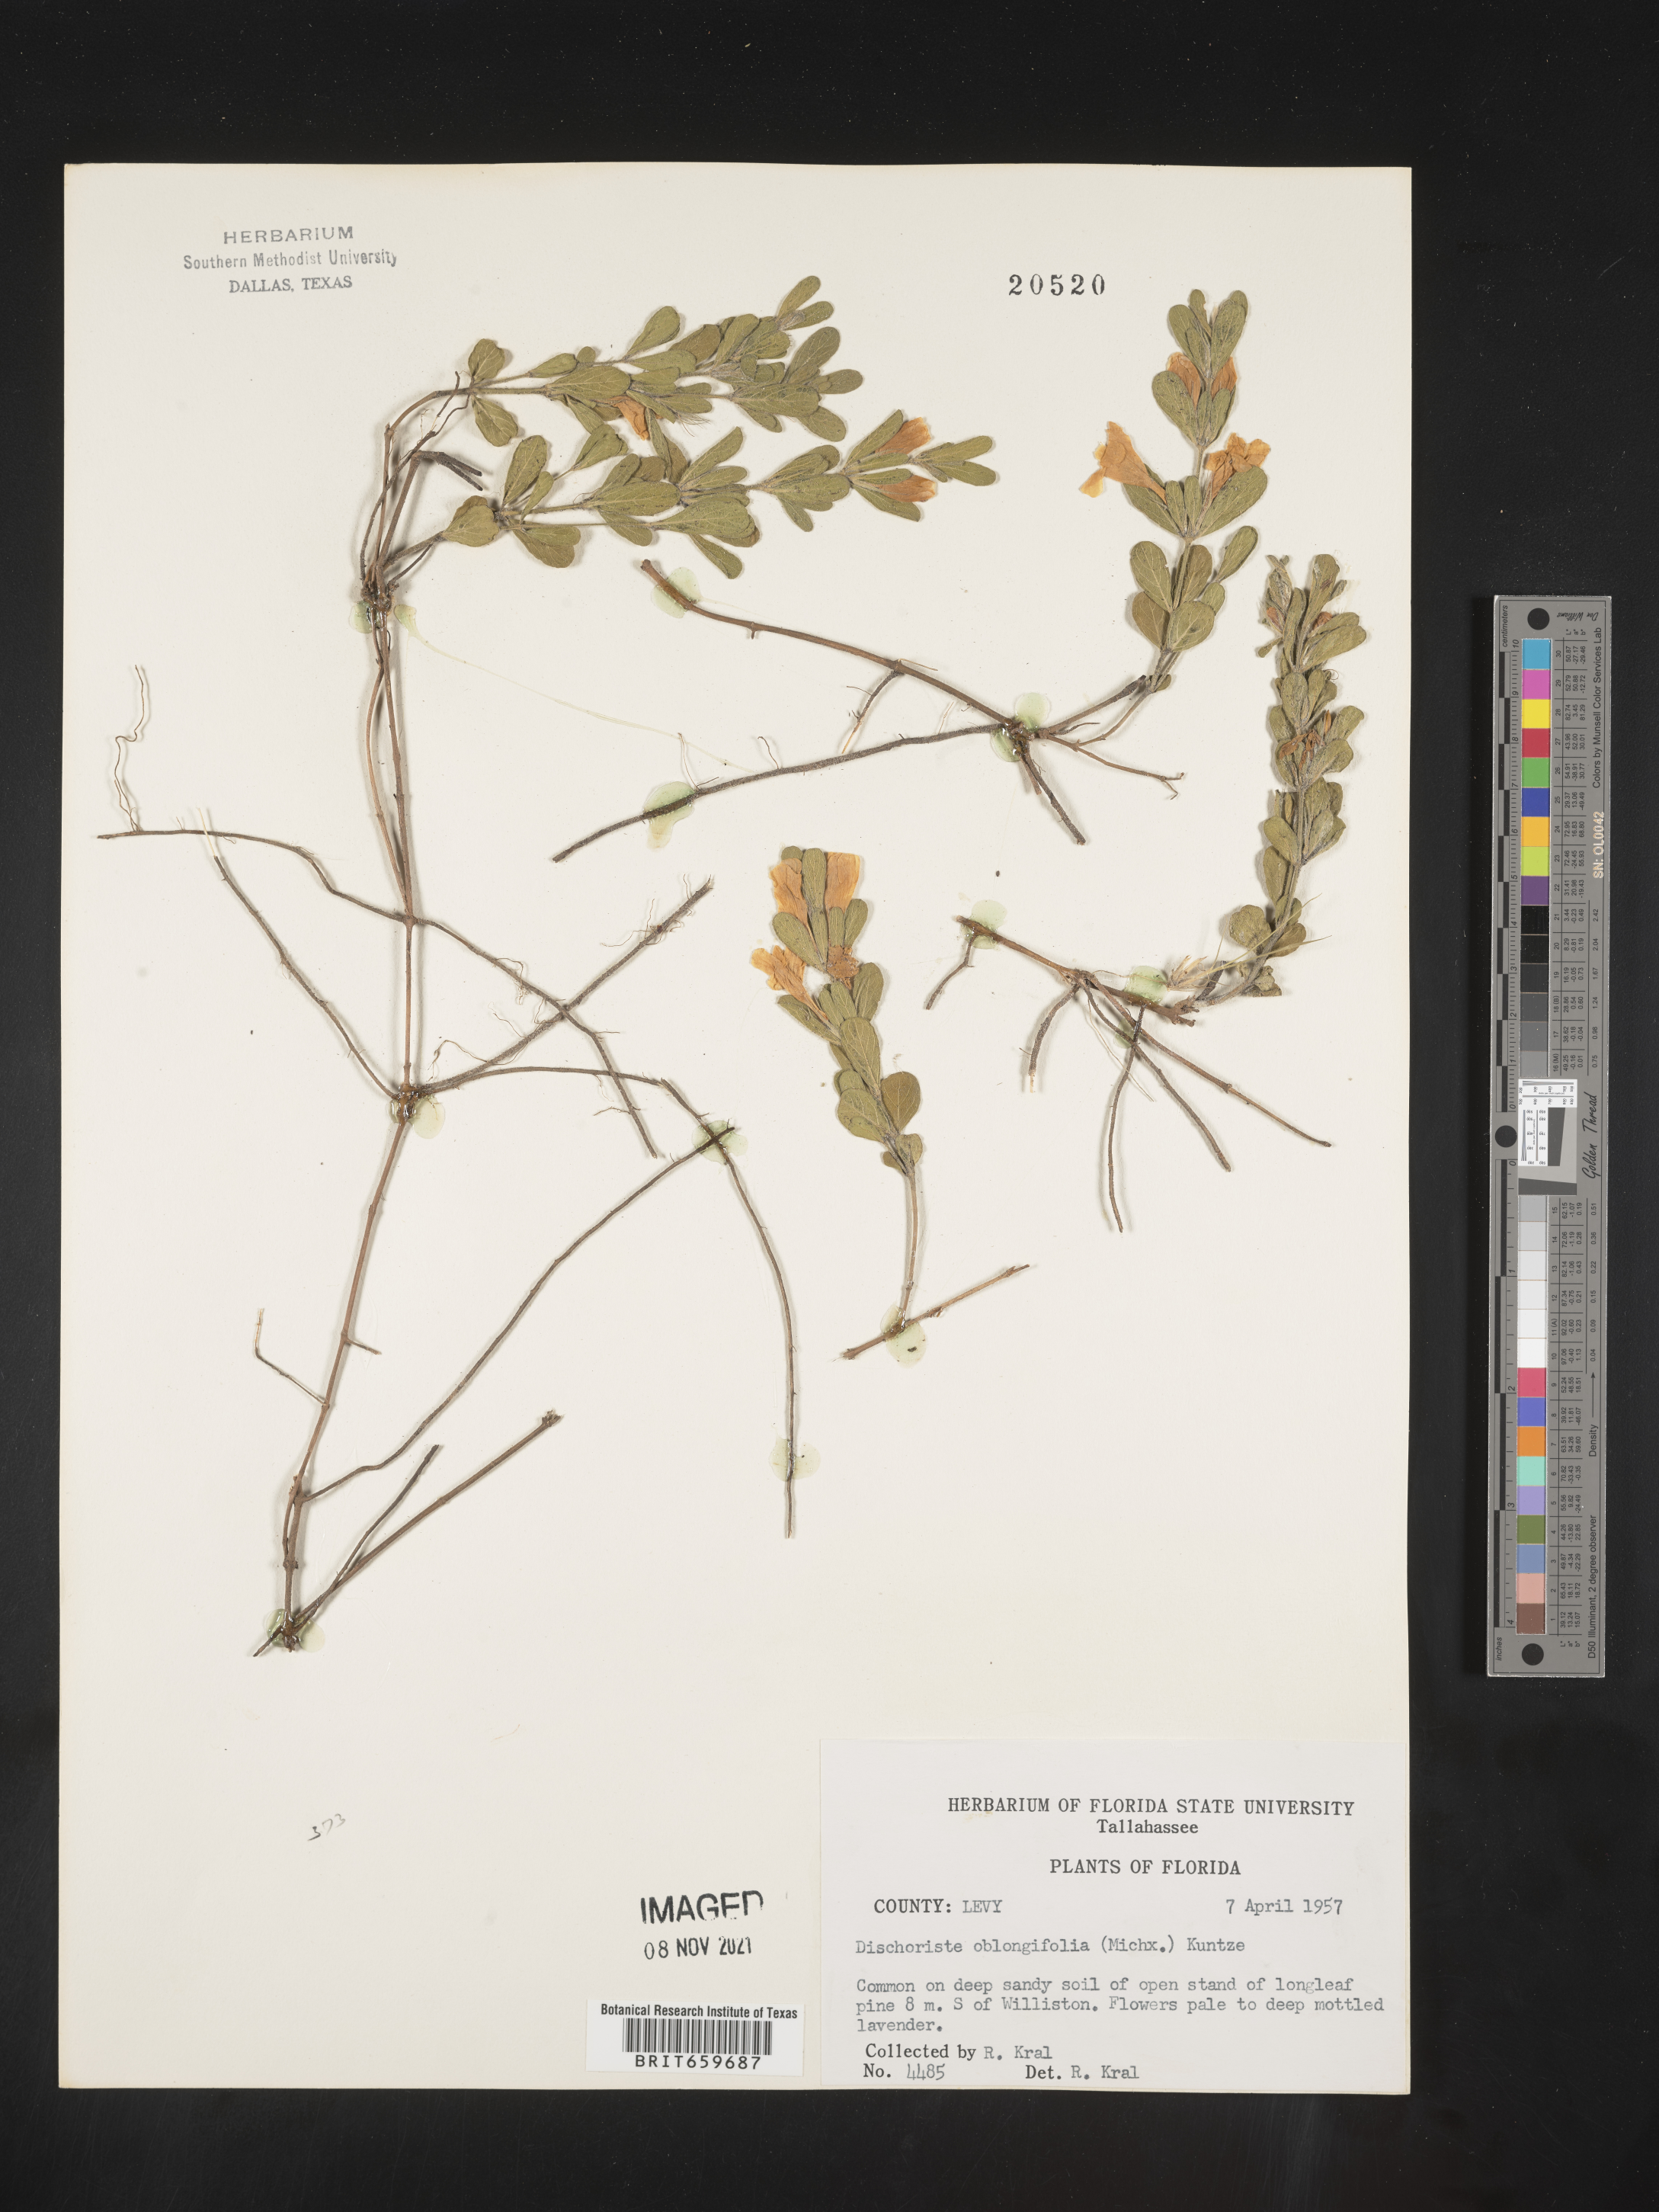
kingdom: Plantae
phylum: Tracheophyta
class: Magnoliopsida
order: Lamiales
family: Acanthaceae
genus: Dyschoriste
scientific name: Dyschoriste oblongifolia
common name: Blue twinflower
